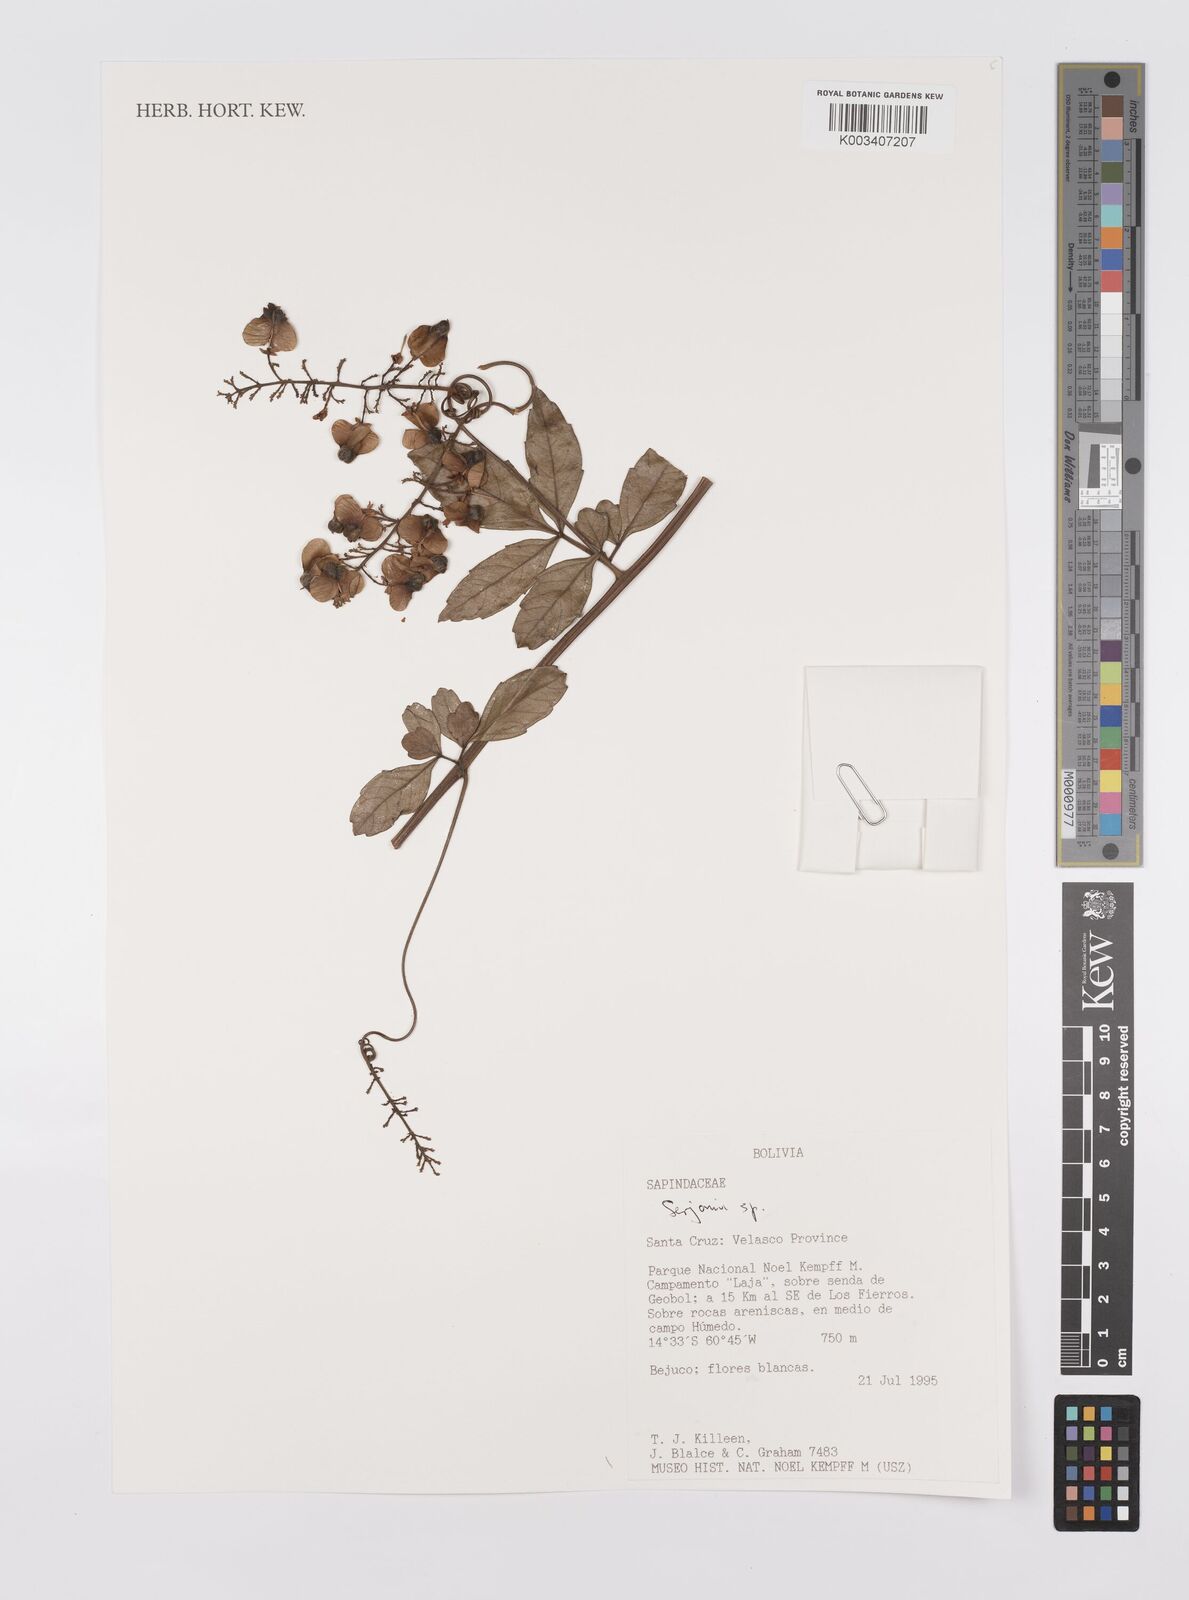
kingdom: Plantae
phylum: Tracheophyta
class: Magnoliopsida
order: Sapindales
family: Sapindaceae
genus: Serjania
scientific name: Serjania
